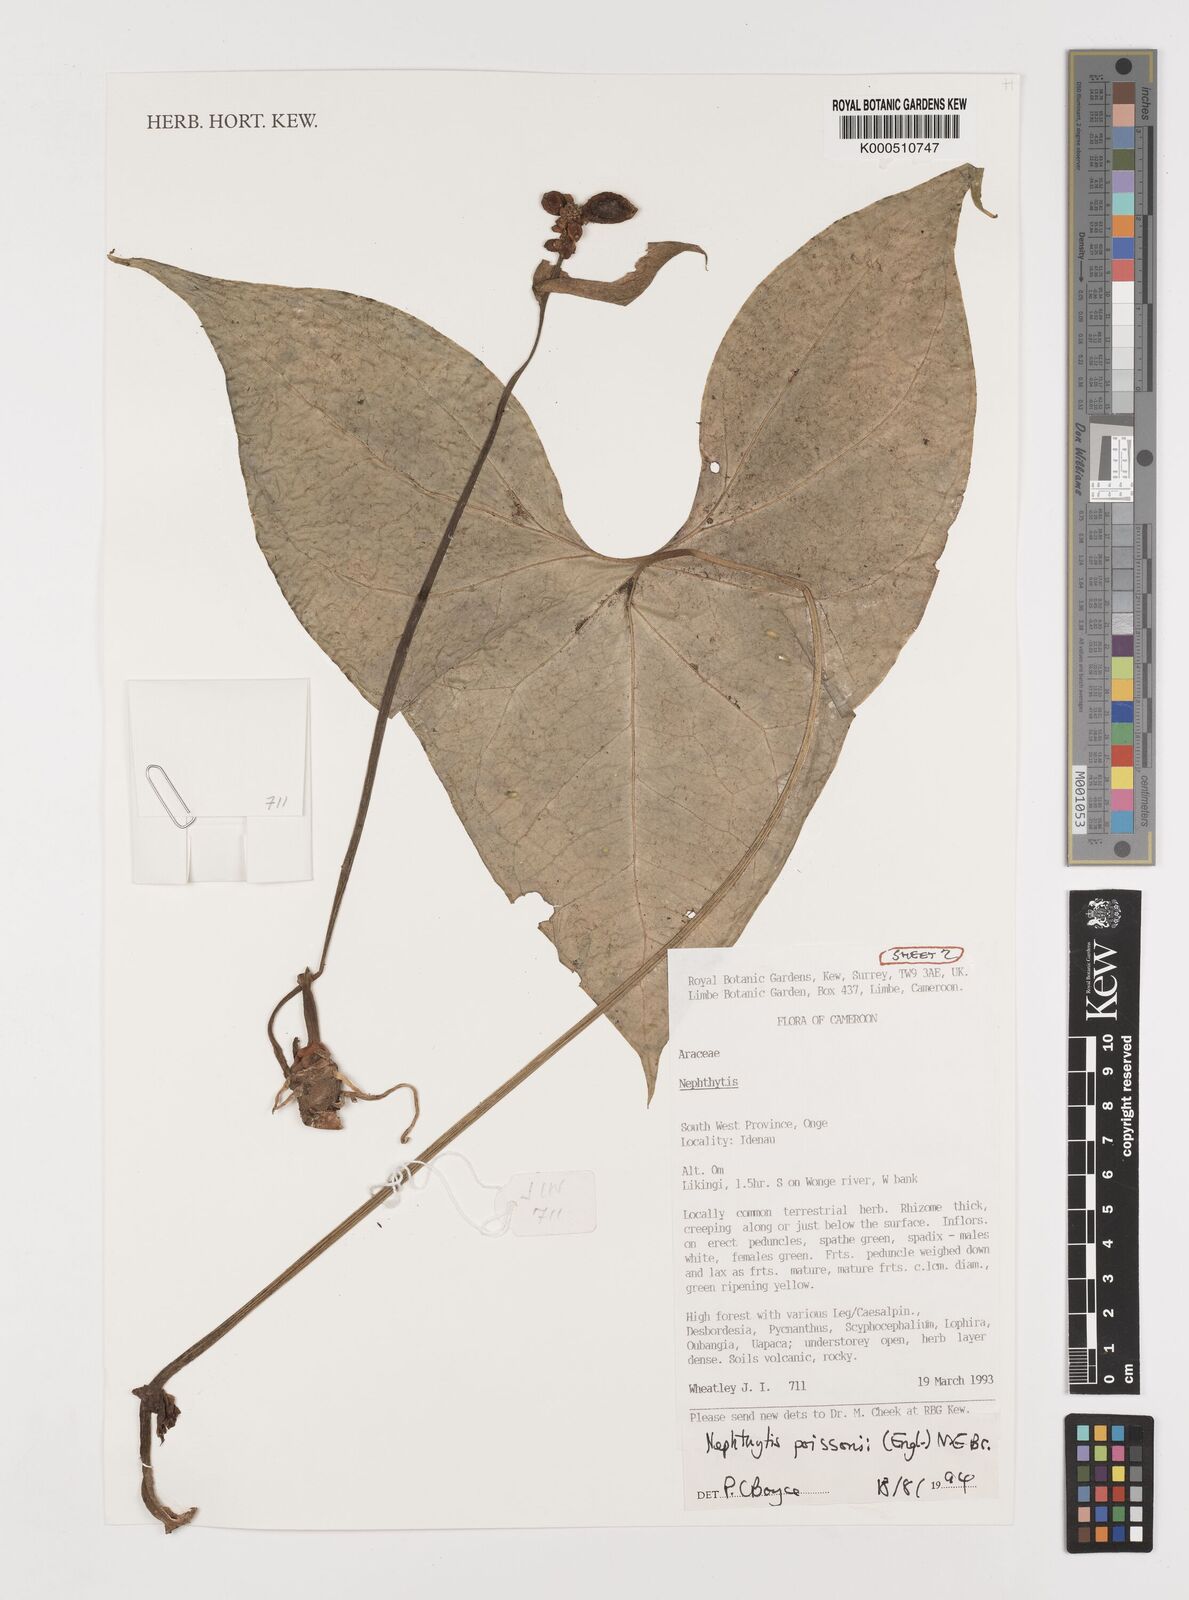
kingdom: Plantae
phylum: Tracheophyta
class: Liliopsida
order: Alismatales
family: Araceae
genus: Nephthytis
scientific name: Nephthytis poissonii
